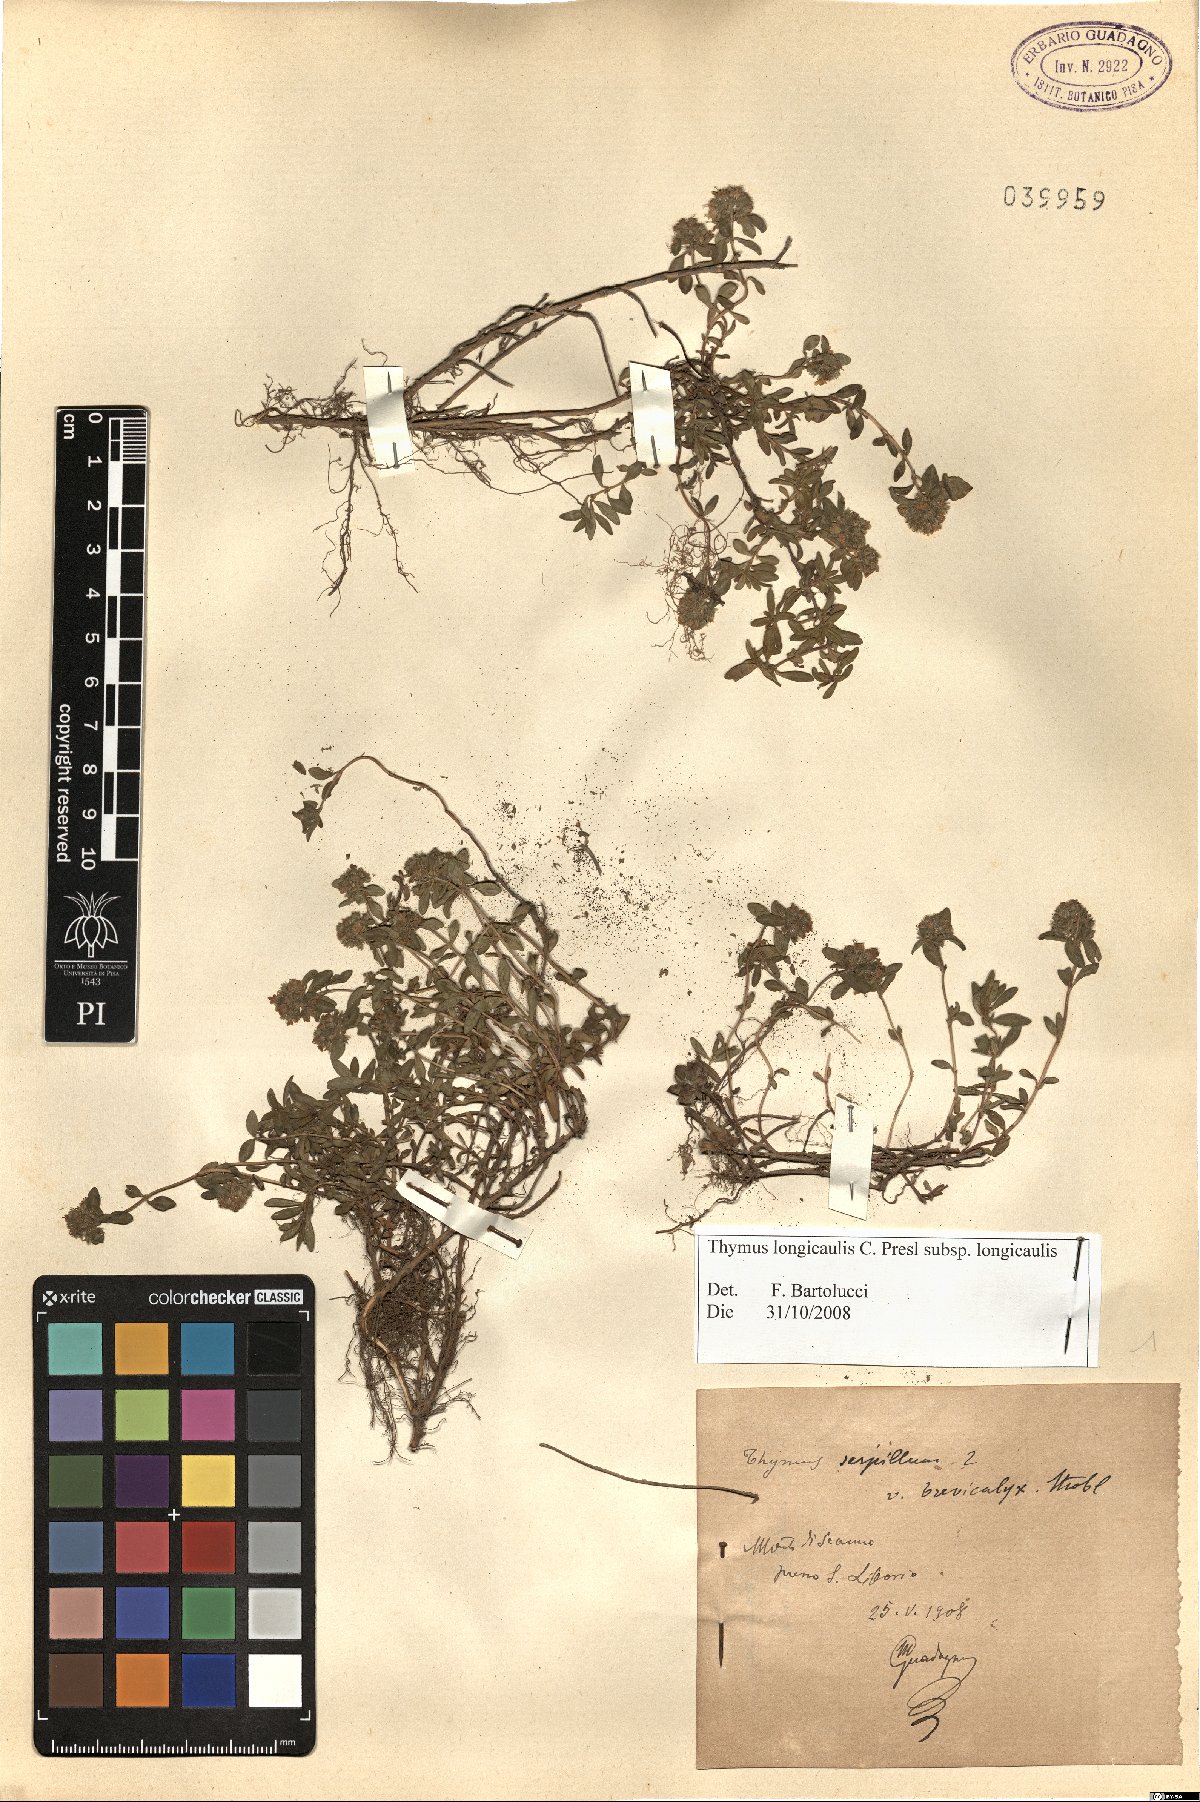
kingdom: Plantae
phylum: Tracheophyta
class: Magnoliopsida
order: Lamiales
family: Lamiaceae
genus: Thymus
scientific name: Thymus longicaulis
